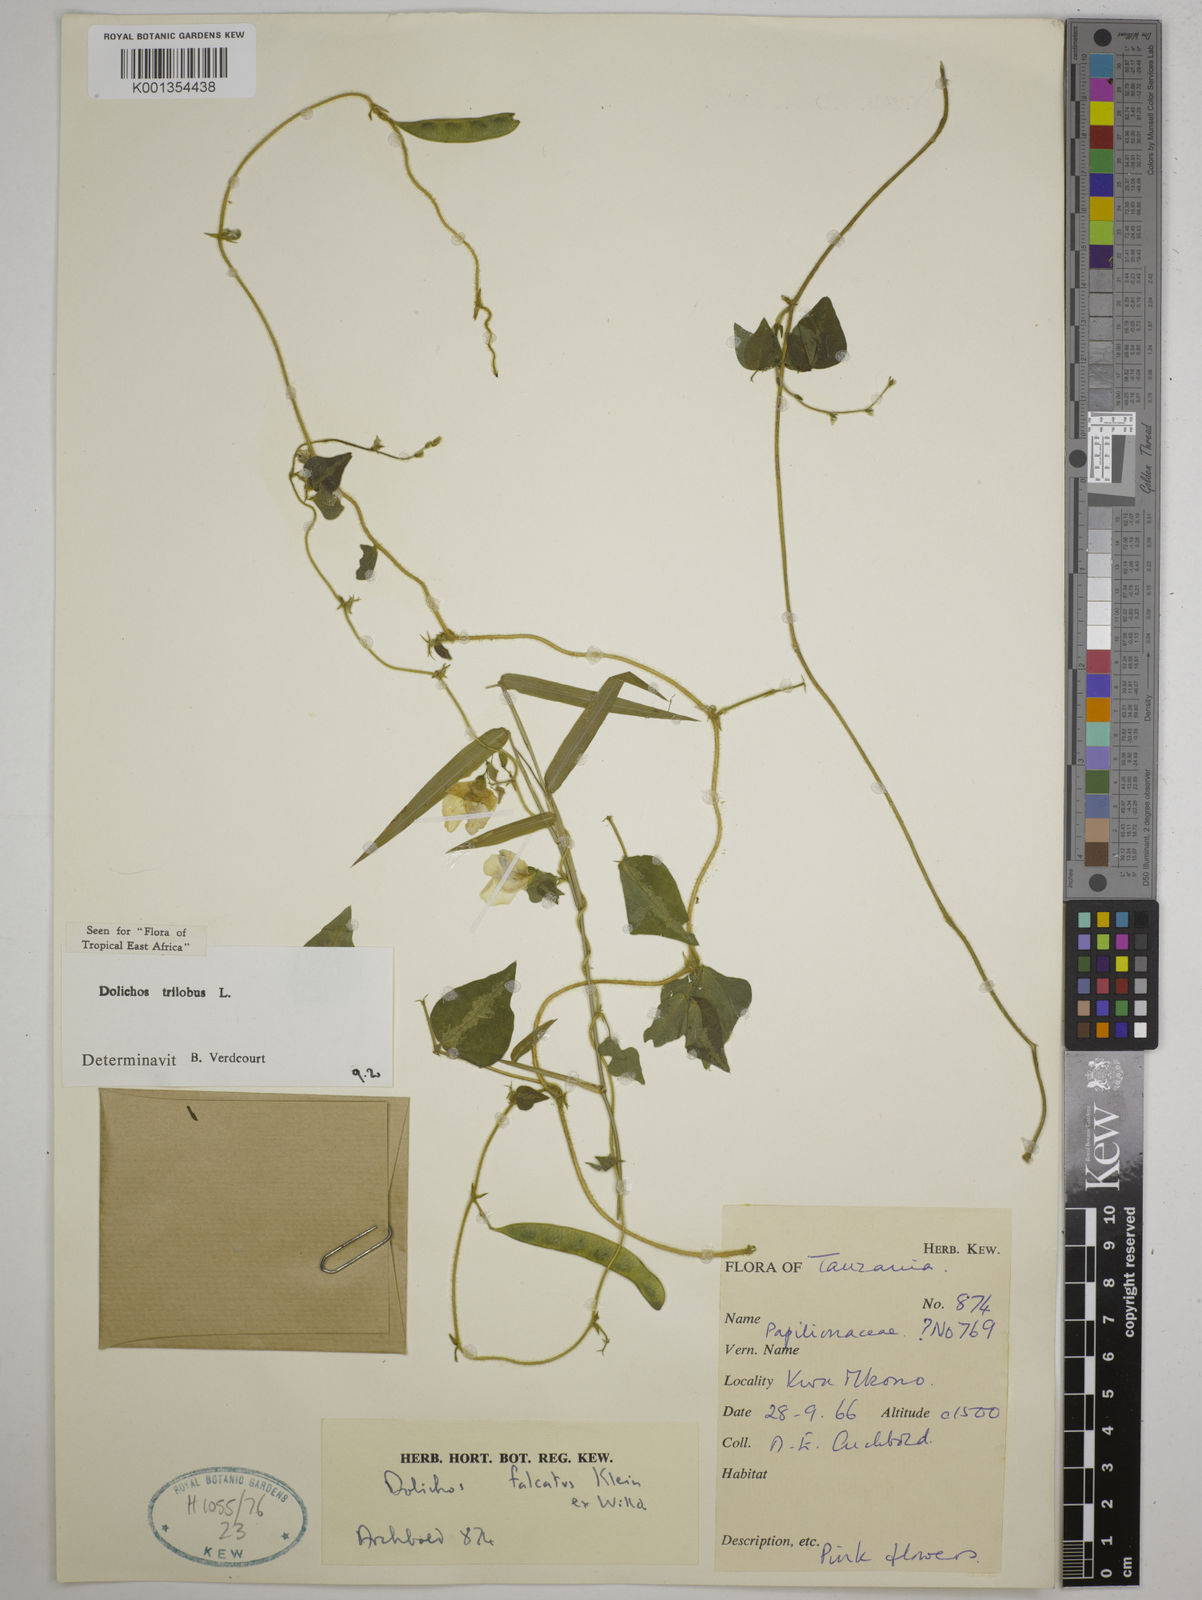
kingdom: Plantae
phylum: Tracheophyta
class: Magnoliopsida
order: Fabales
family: Fabaceae
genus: Dolichos
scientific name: Dolichos
